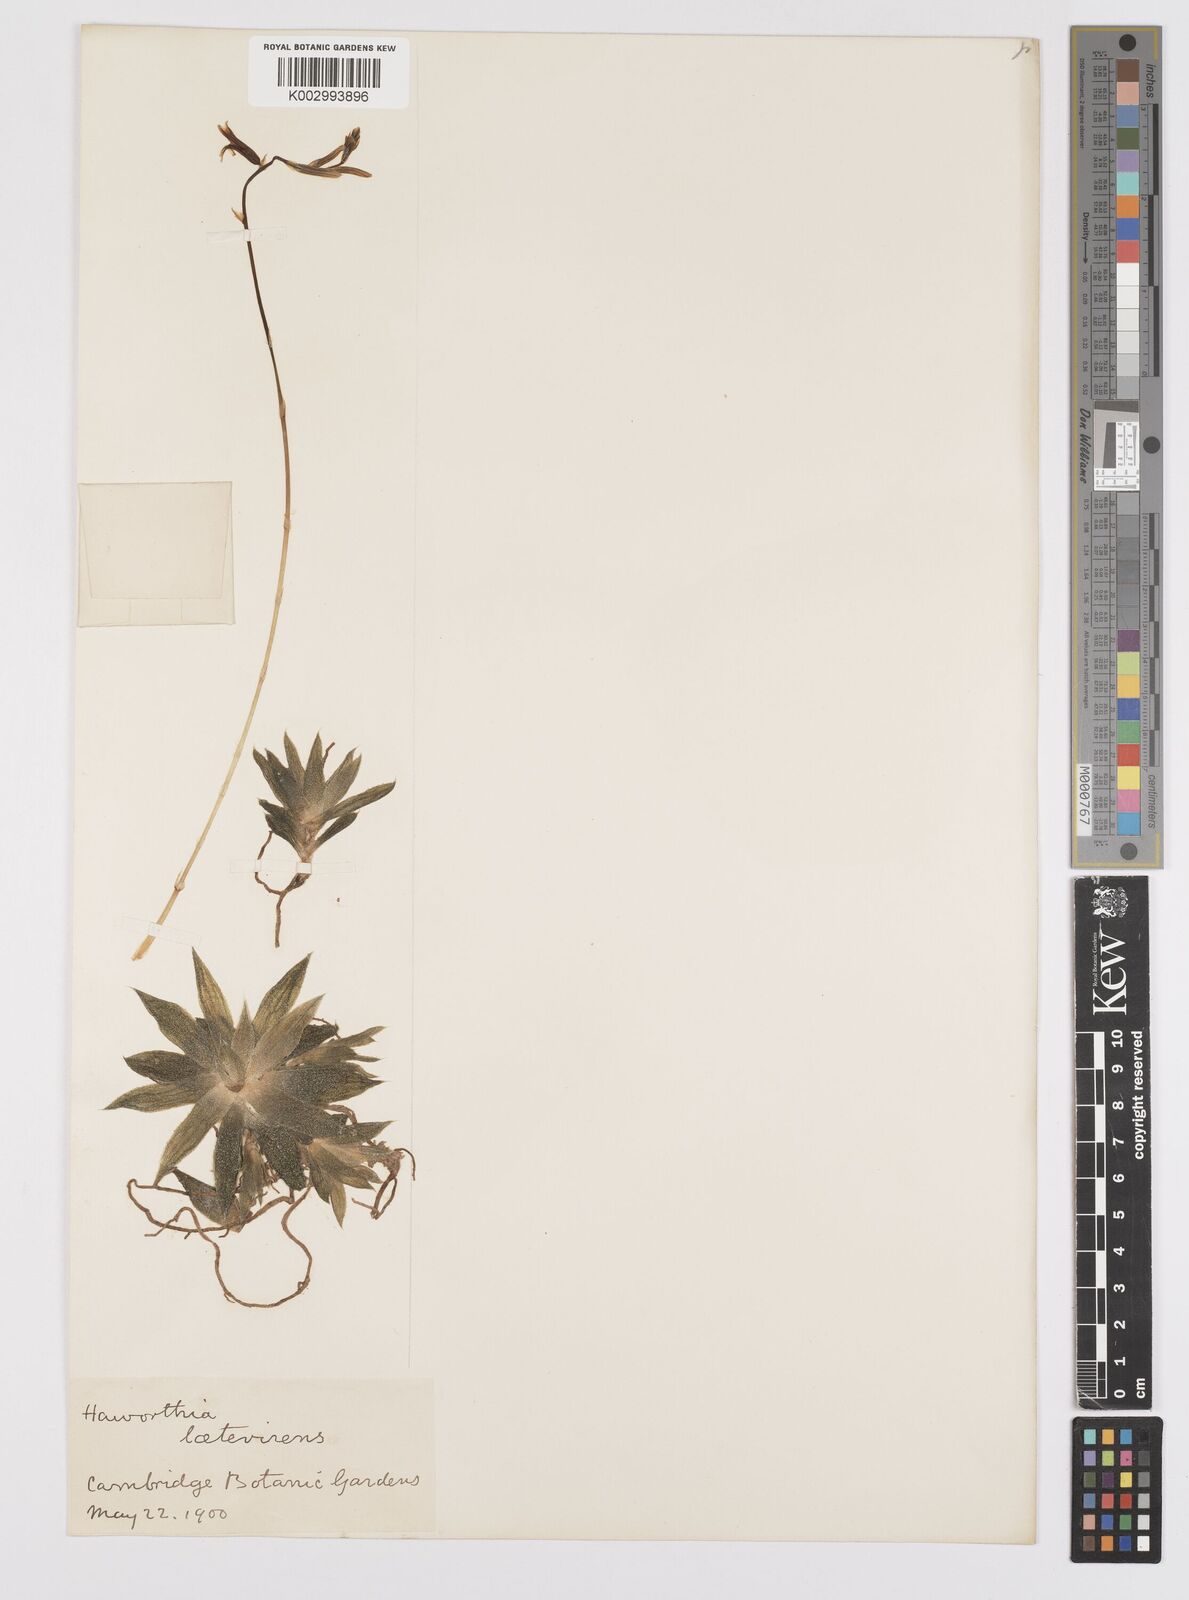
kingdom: Plantae
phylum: Tracheophyta
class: Liliopsida
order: Asparagales
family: Asphodelaceae
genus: Haworthia
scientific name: Haworthia turgida
